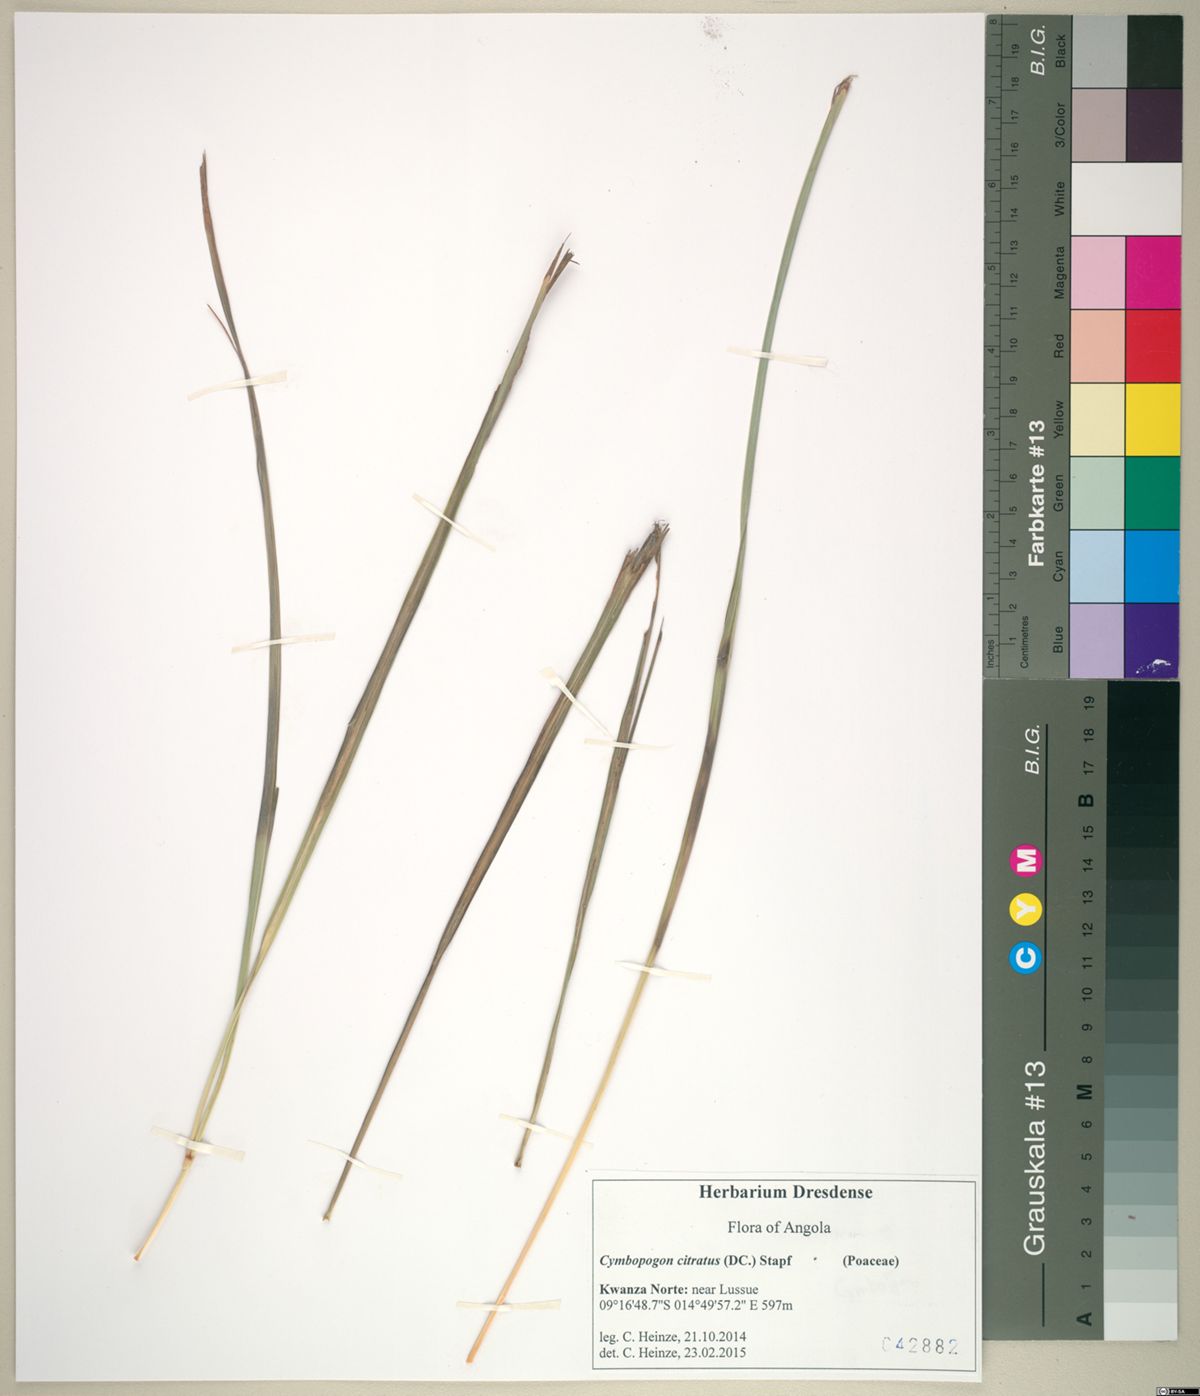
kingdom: Plantae
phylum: Tracheophyta
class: Liliopsida
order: Poales
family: Poaceae
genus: Cymbopogon
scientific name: Cymbopogon citratus
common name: Lemon grass
